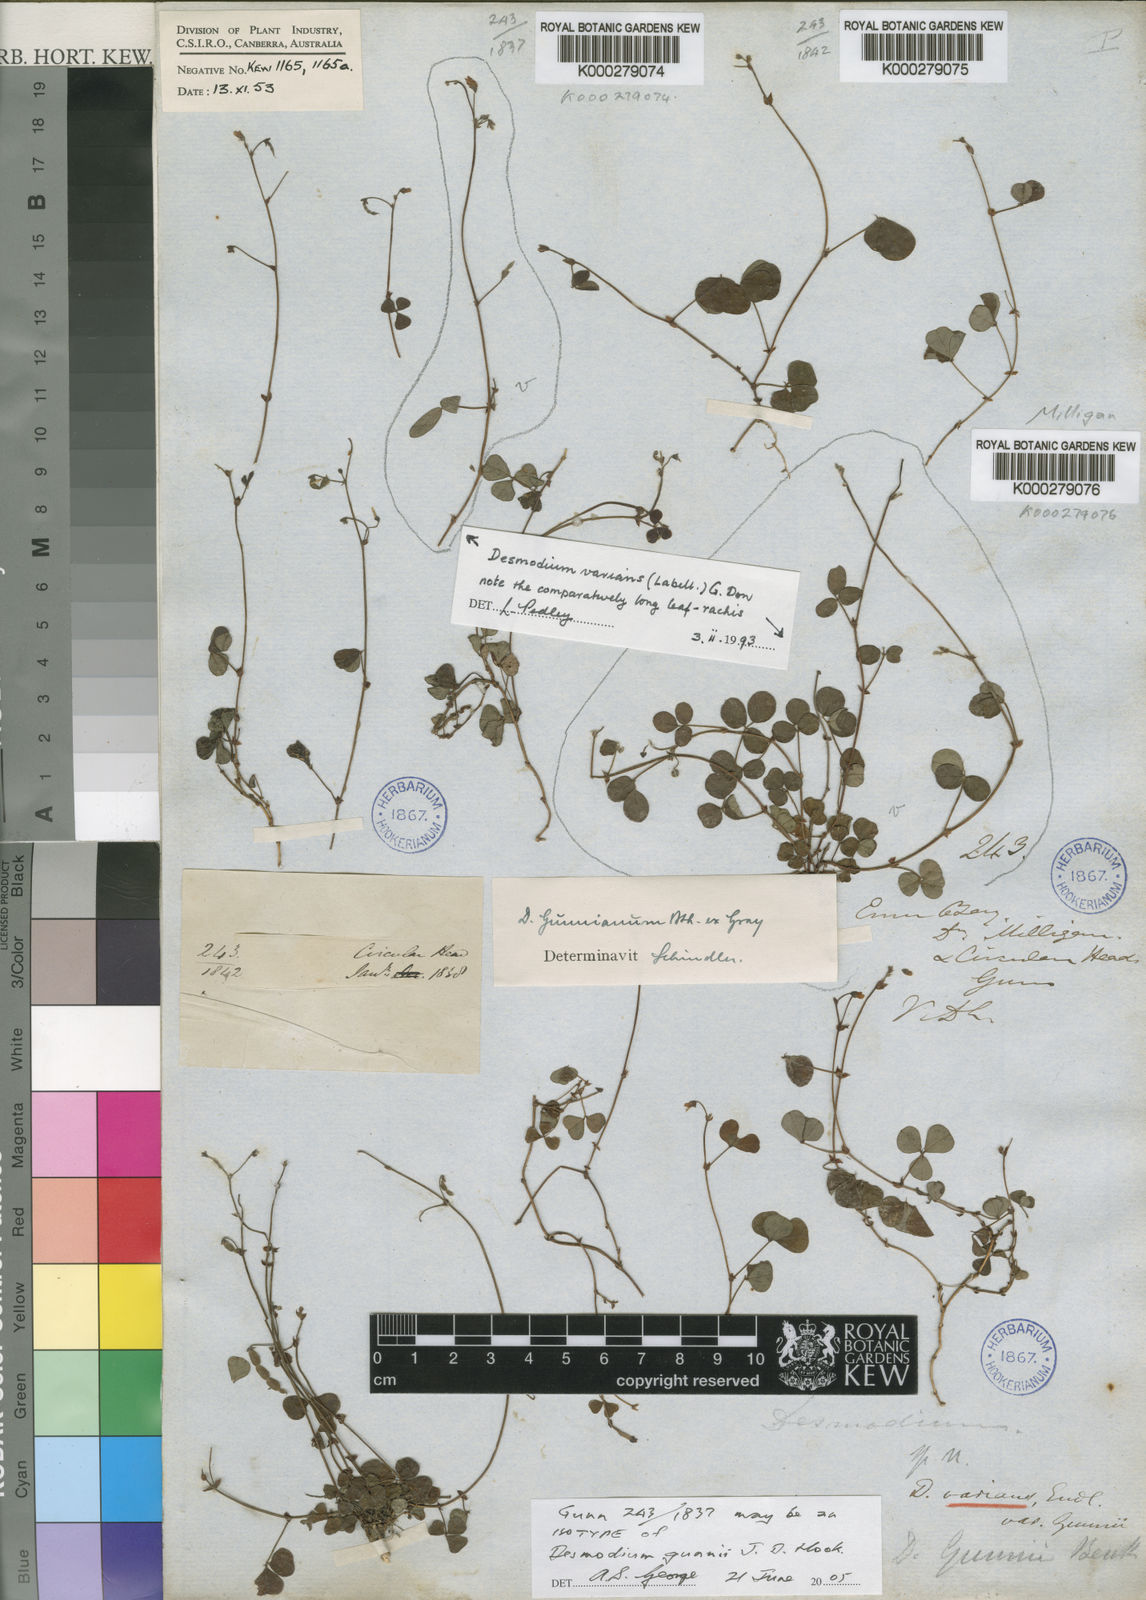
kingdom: Plantae
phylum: Tracheophyta
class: Magnoliopsida
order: Fabales
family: Fabaceae
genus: Pullenia
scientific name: Pullenia gunnii
